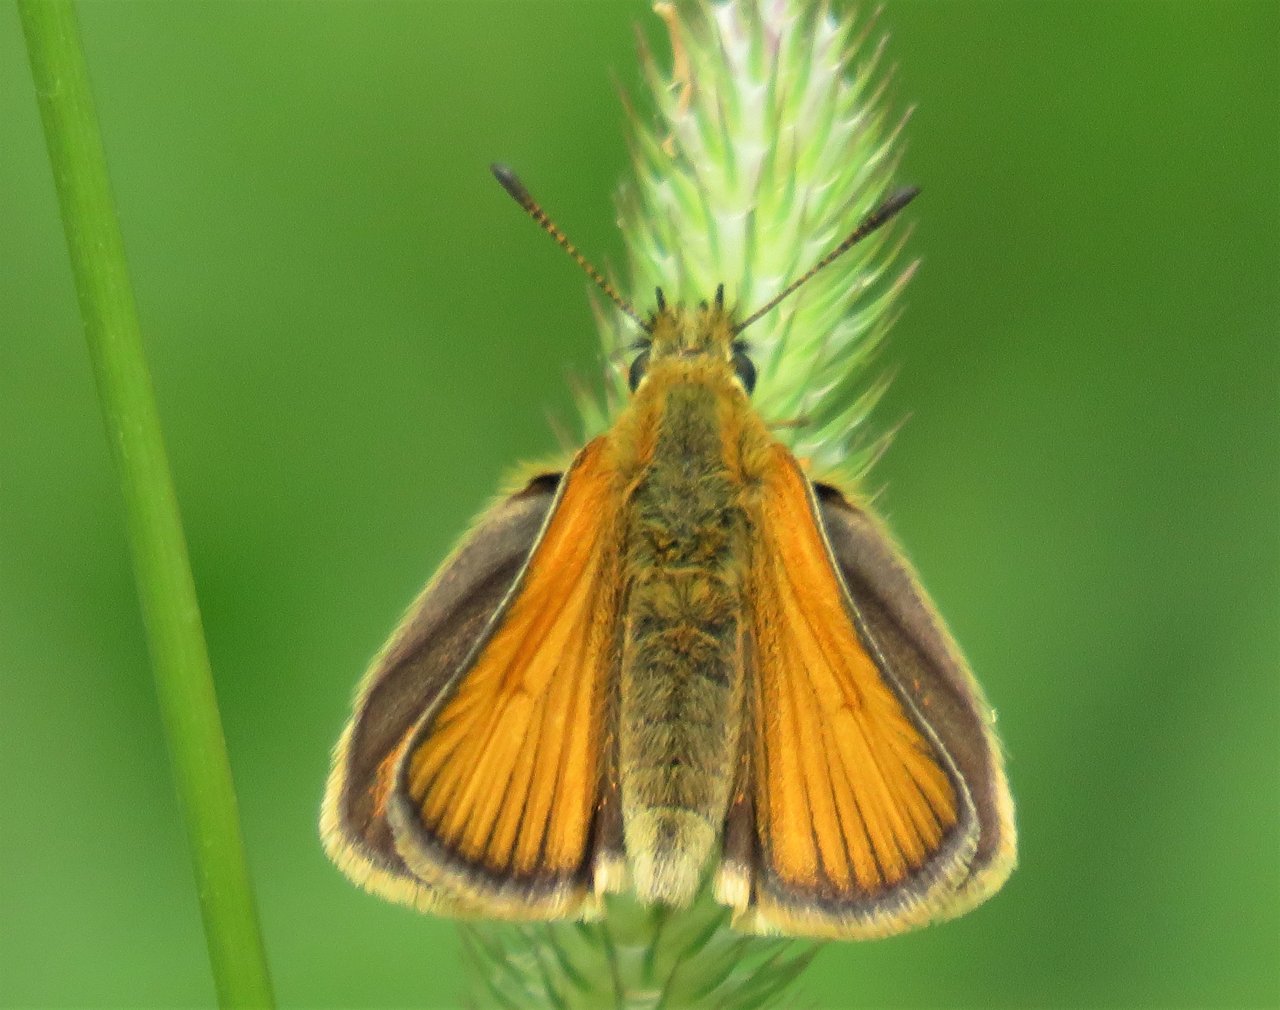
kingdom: Animalia
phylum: Arthropoda
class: Insecta
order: Lepidoptera
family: Hesperiidae
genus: Thymelicus
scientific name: Thymelicus lineola
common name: European Skipper
